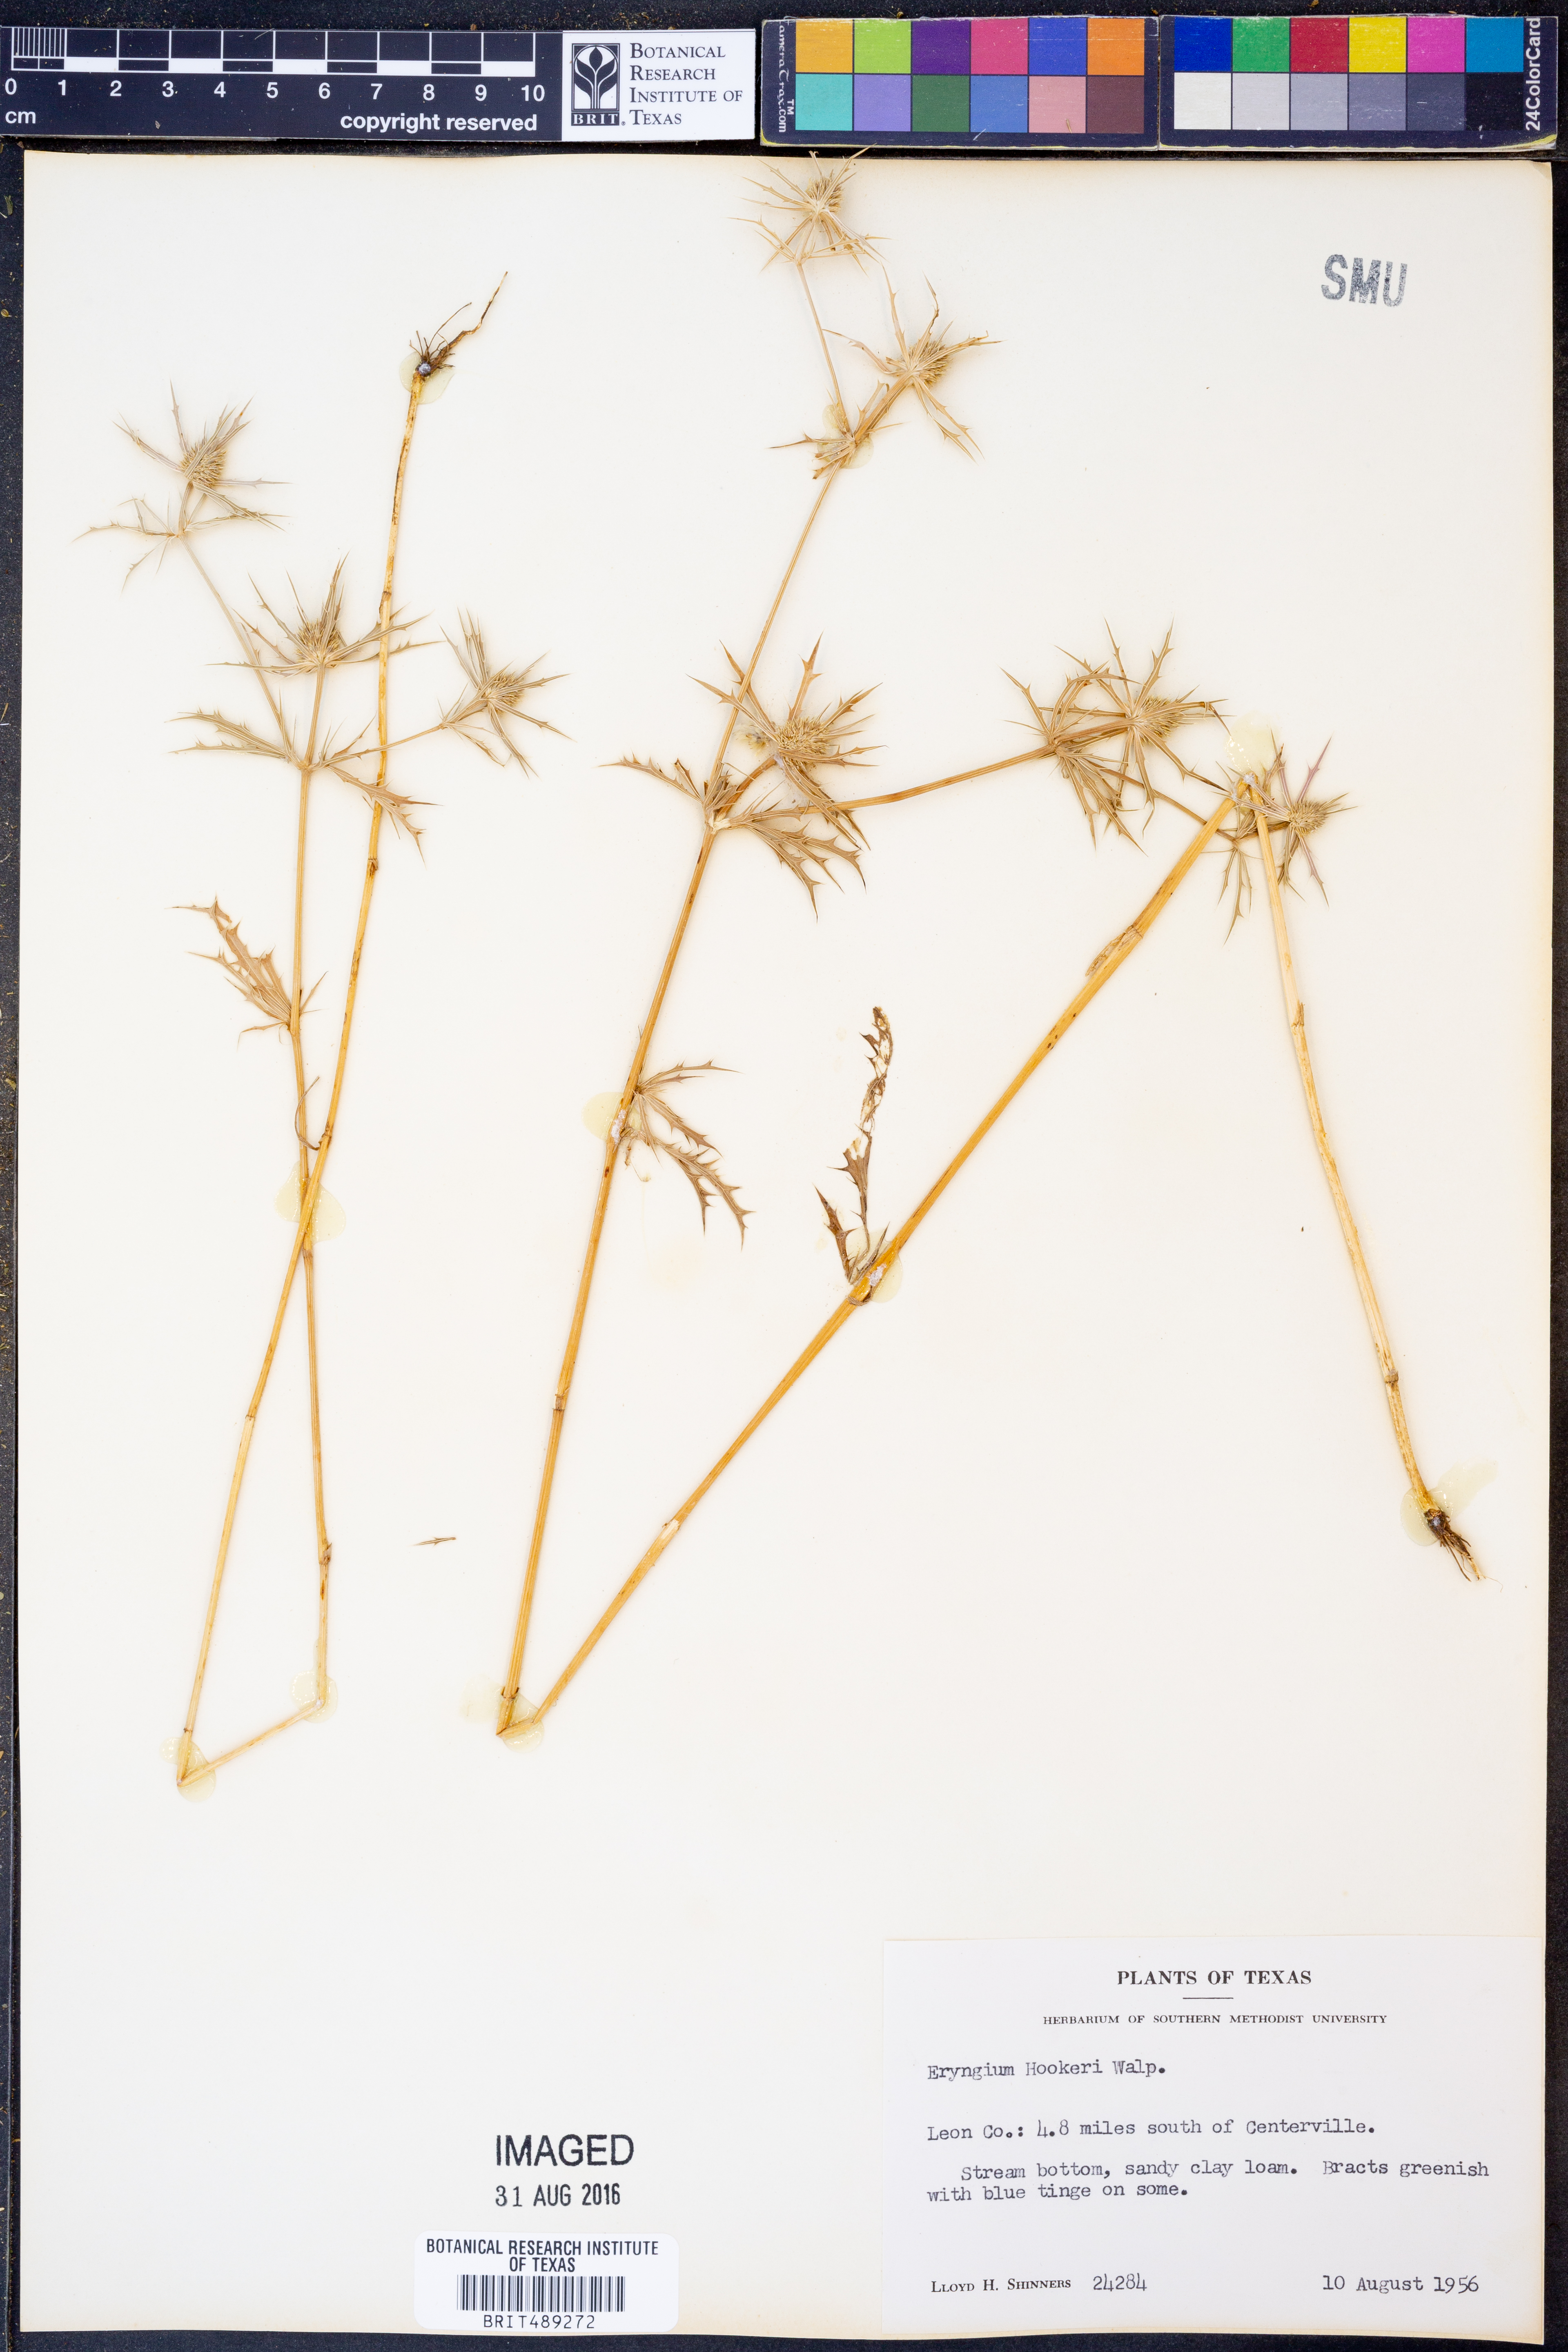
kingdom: Plantae
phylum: Tracheophyta
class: Magnoliopsida
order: Apiales
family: Apiaceae
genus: Eryngium
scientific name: Eryngium hookeri
